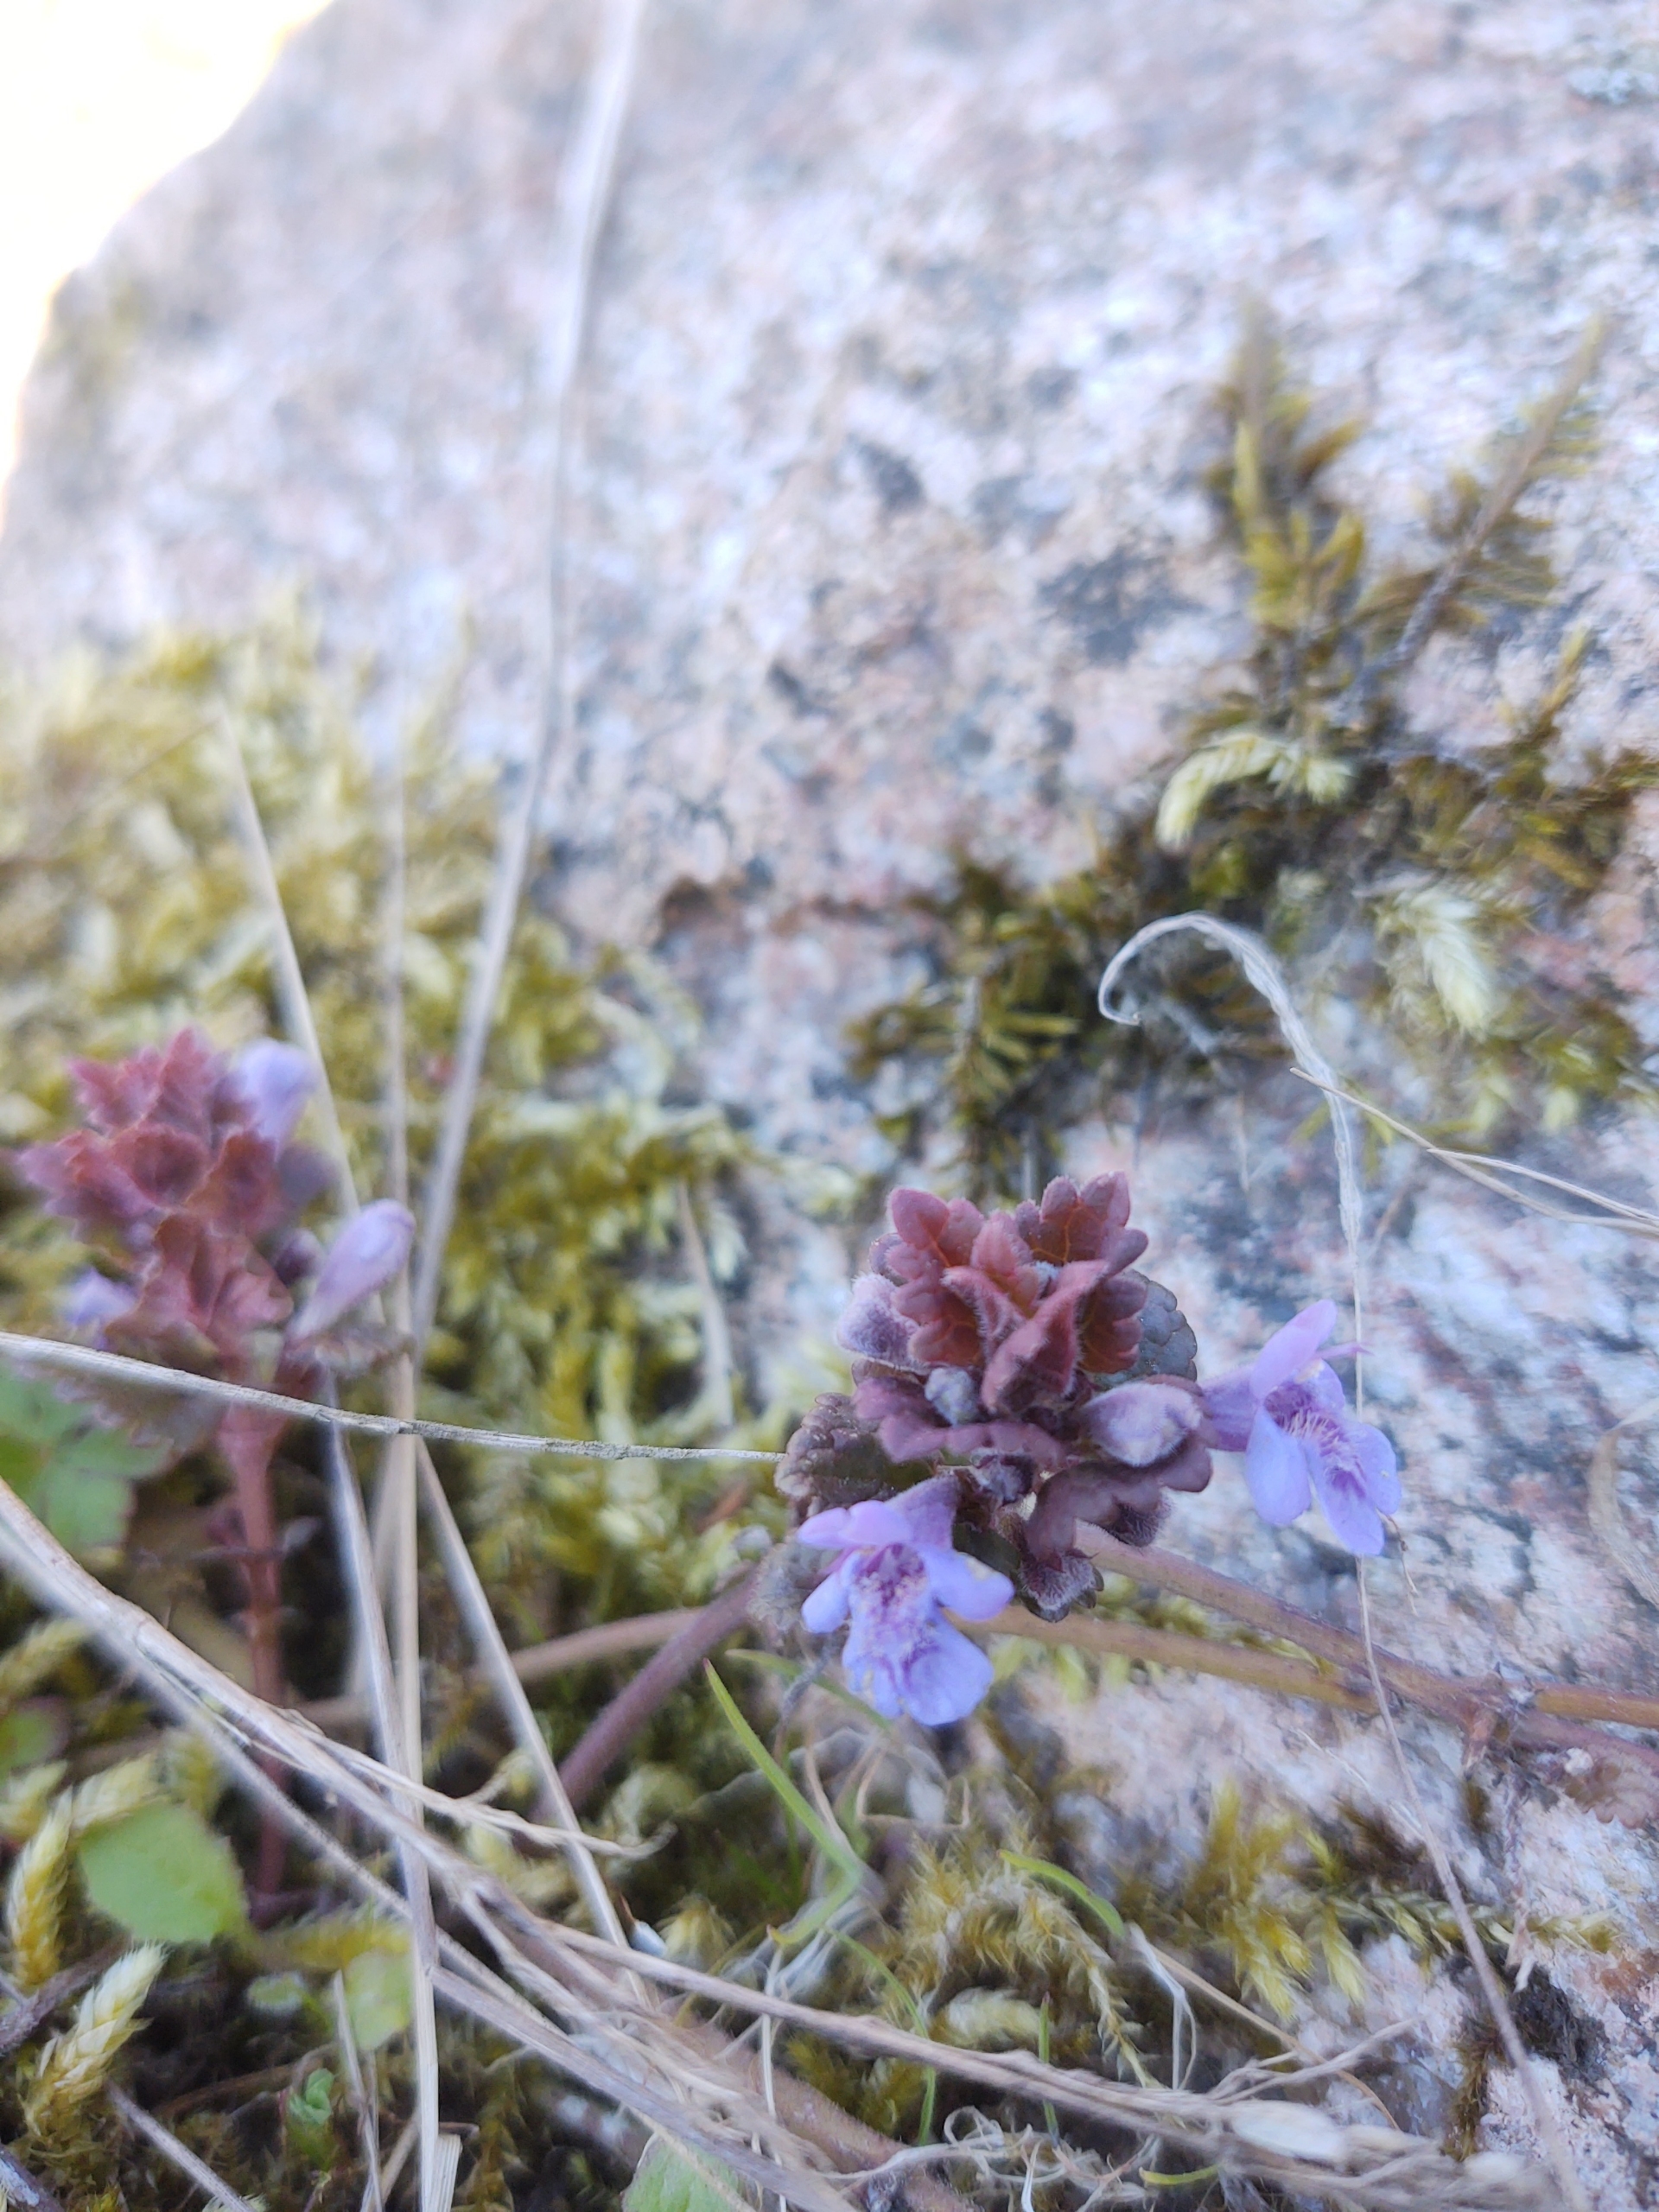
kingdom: Plantae
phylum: Tracheophyta
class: Magnoliopsida
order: Lamiales
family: Lamiaceae
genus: Glechoma
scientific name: Glechoma hederacea
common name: Korsknap
